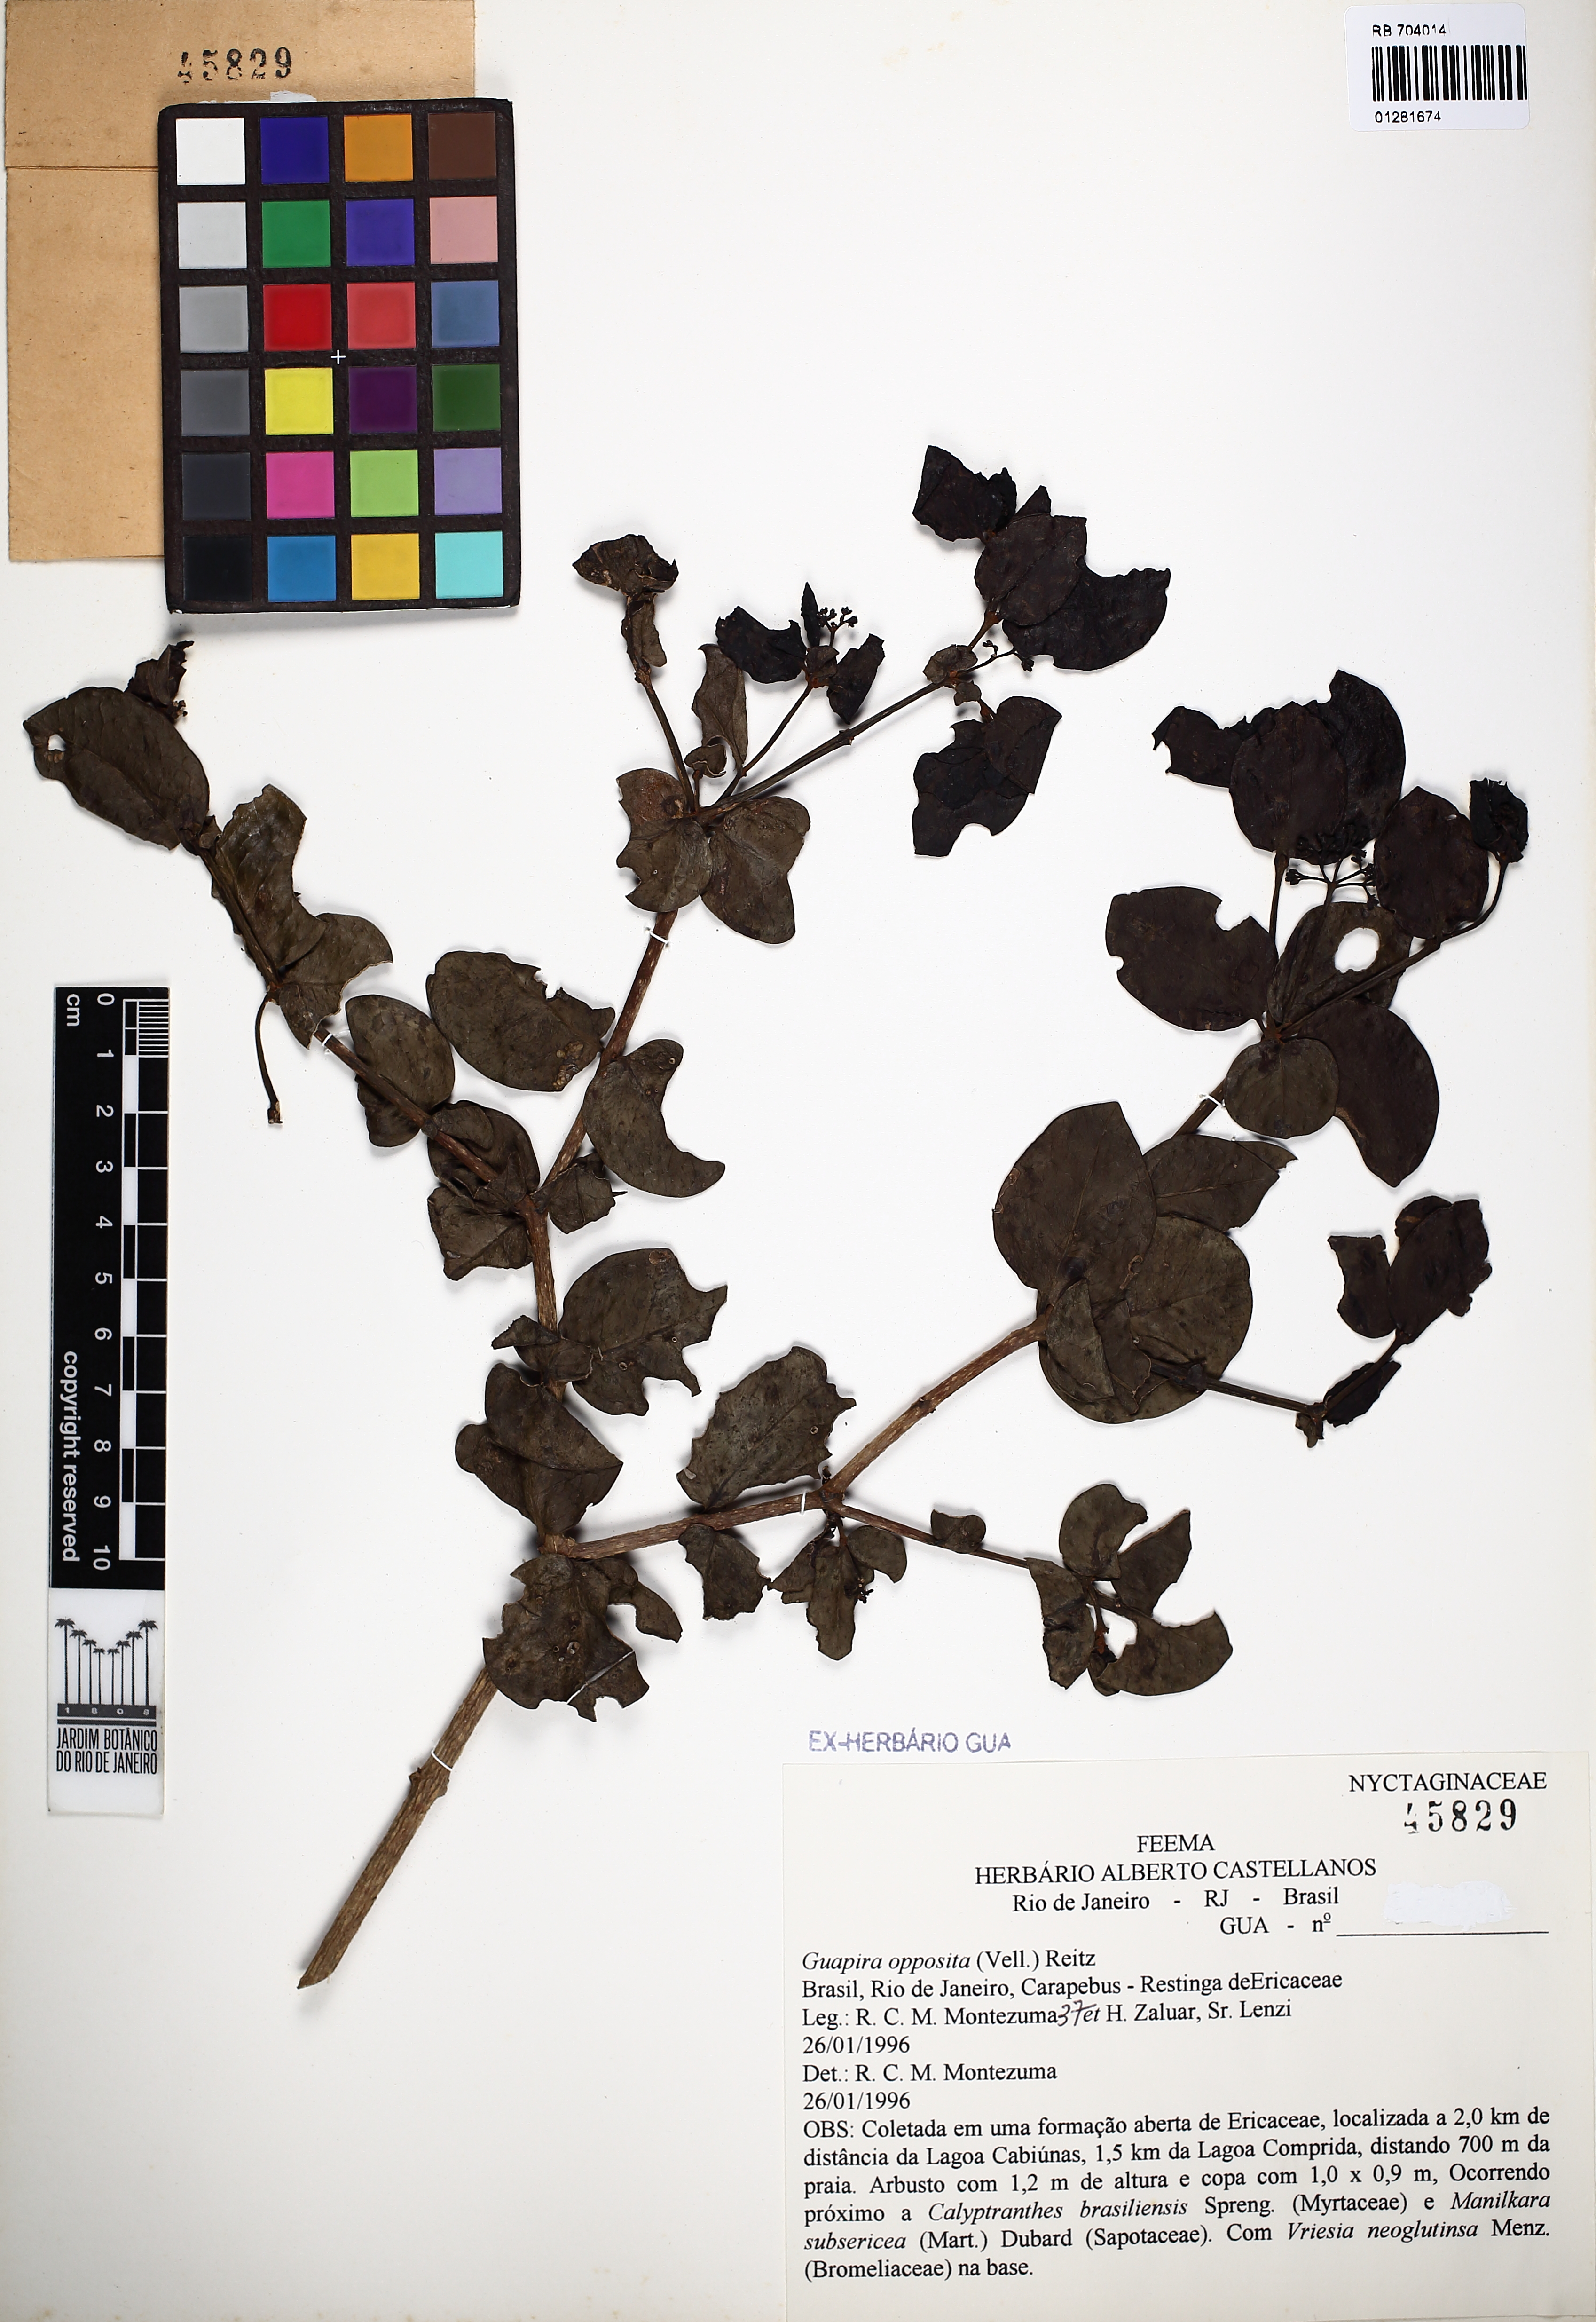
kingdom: Plantae
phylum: Tracheophyta
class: Magnoliopsida
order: Caryophyllales
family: Nyctaginaceae
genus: Guapira
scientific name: Guapira opposita
